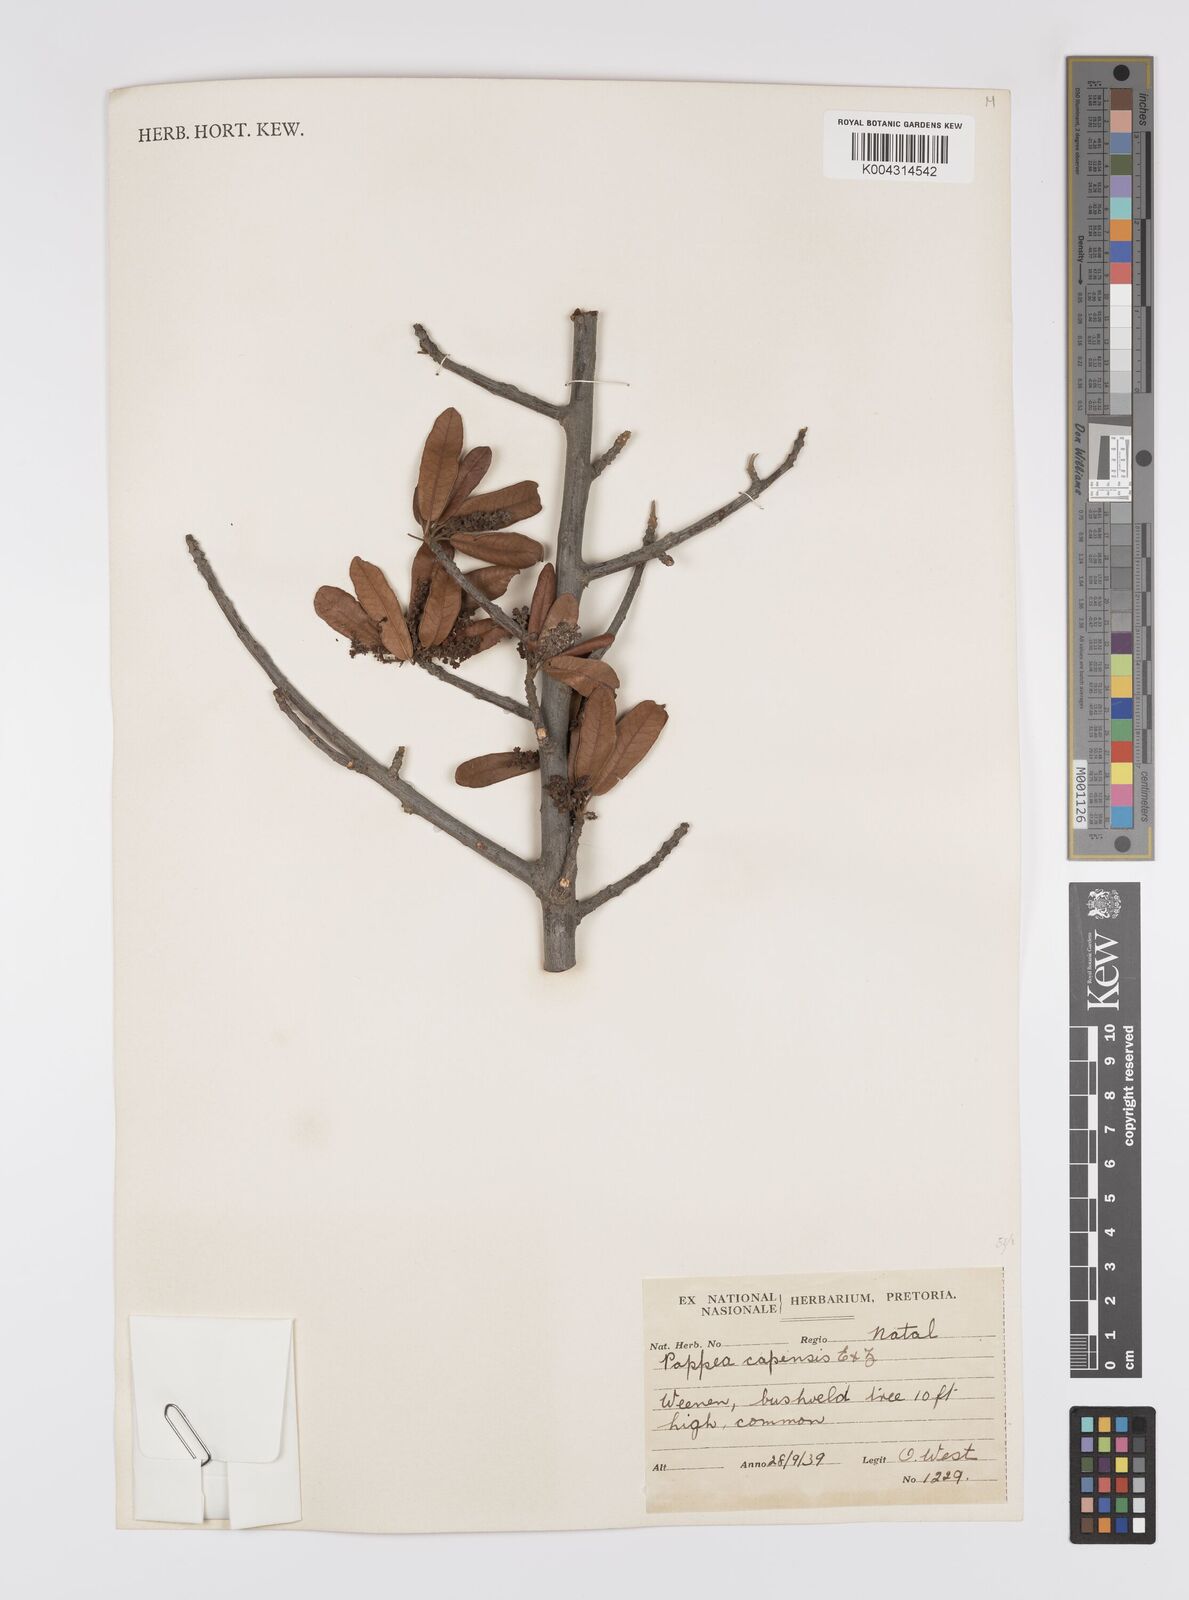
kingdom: Plantae
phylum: Tracheophyta
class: Magnoliopsida
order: Sapindales
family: Sapindaceae
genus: Pappea
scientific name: Pappea capensis
